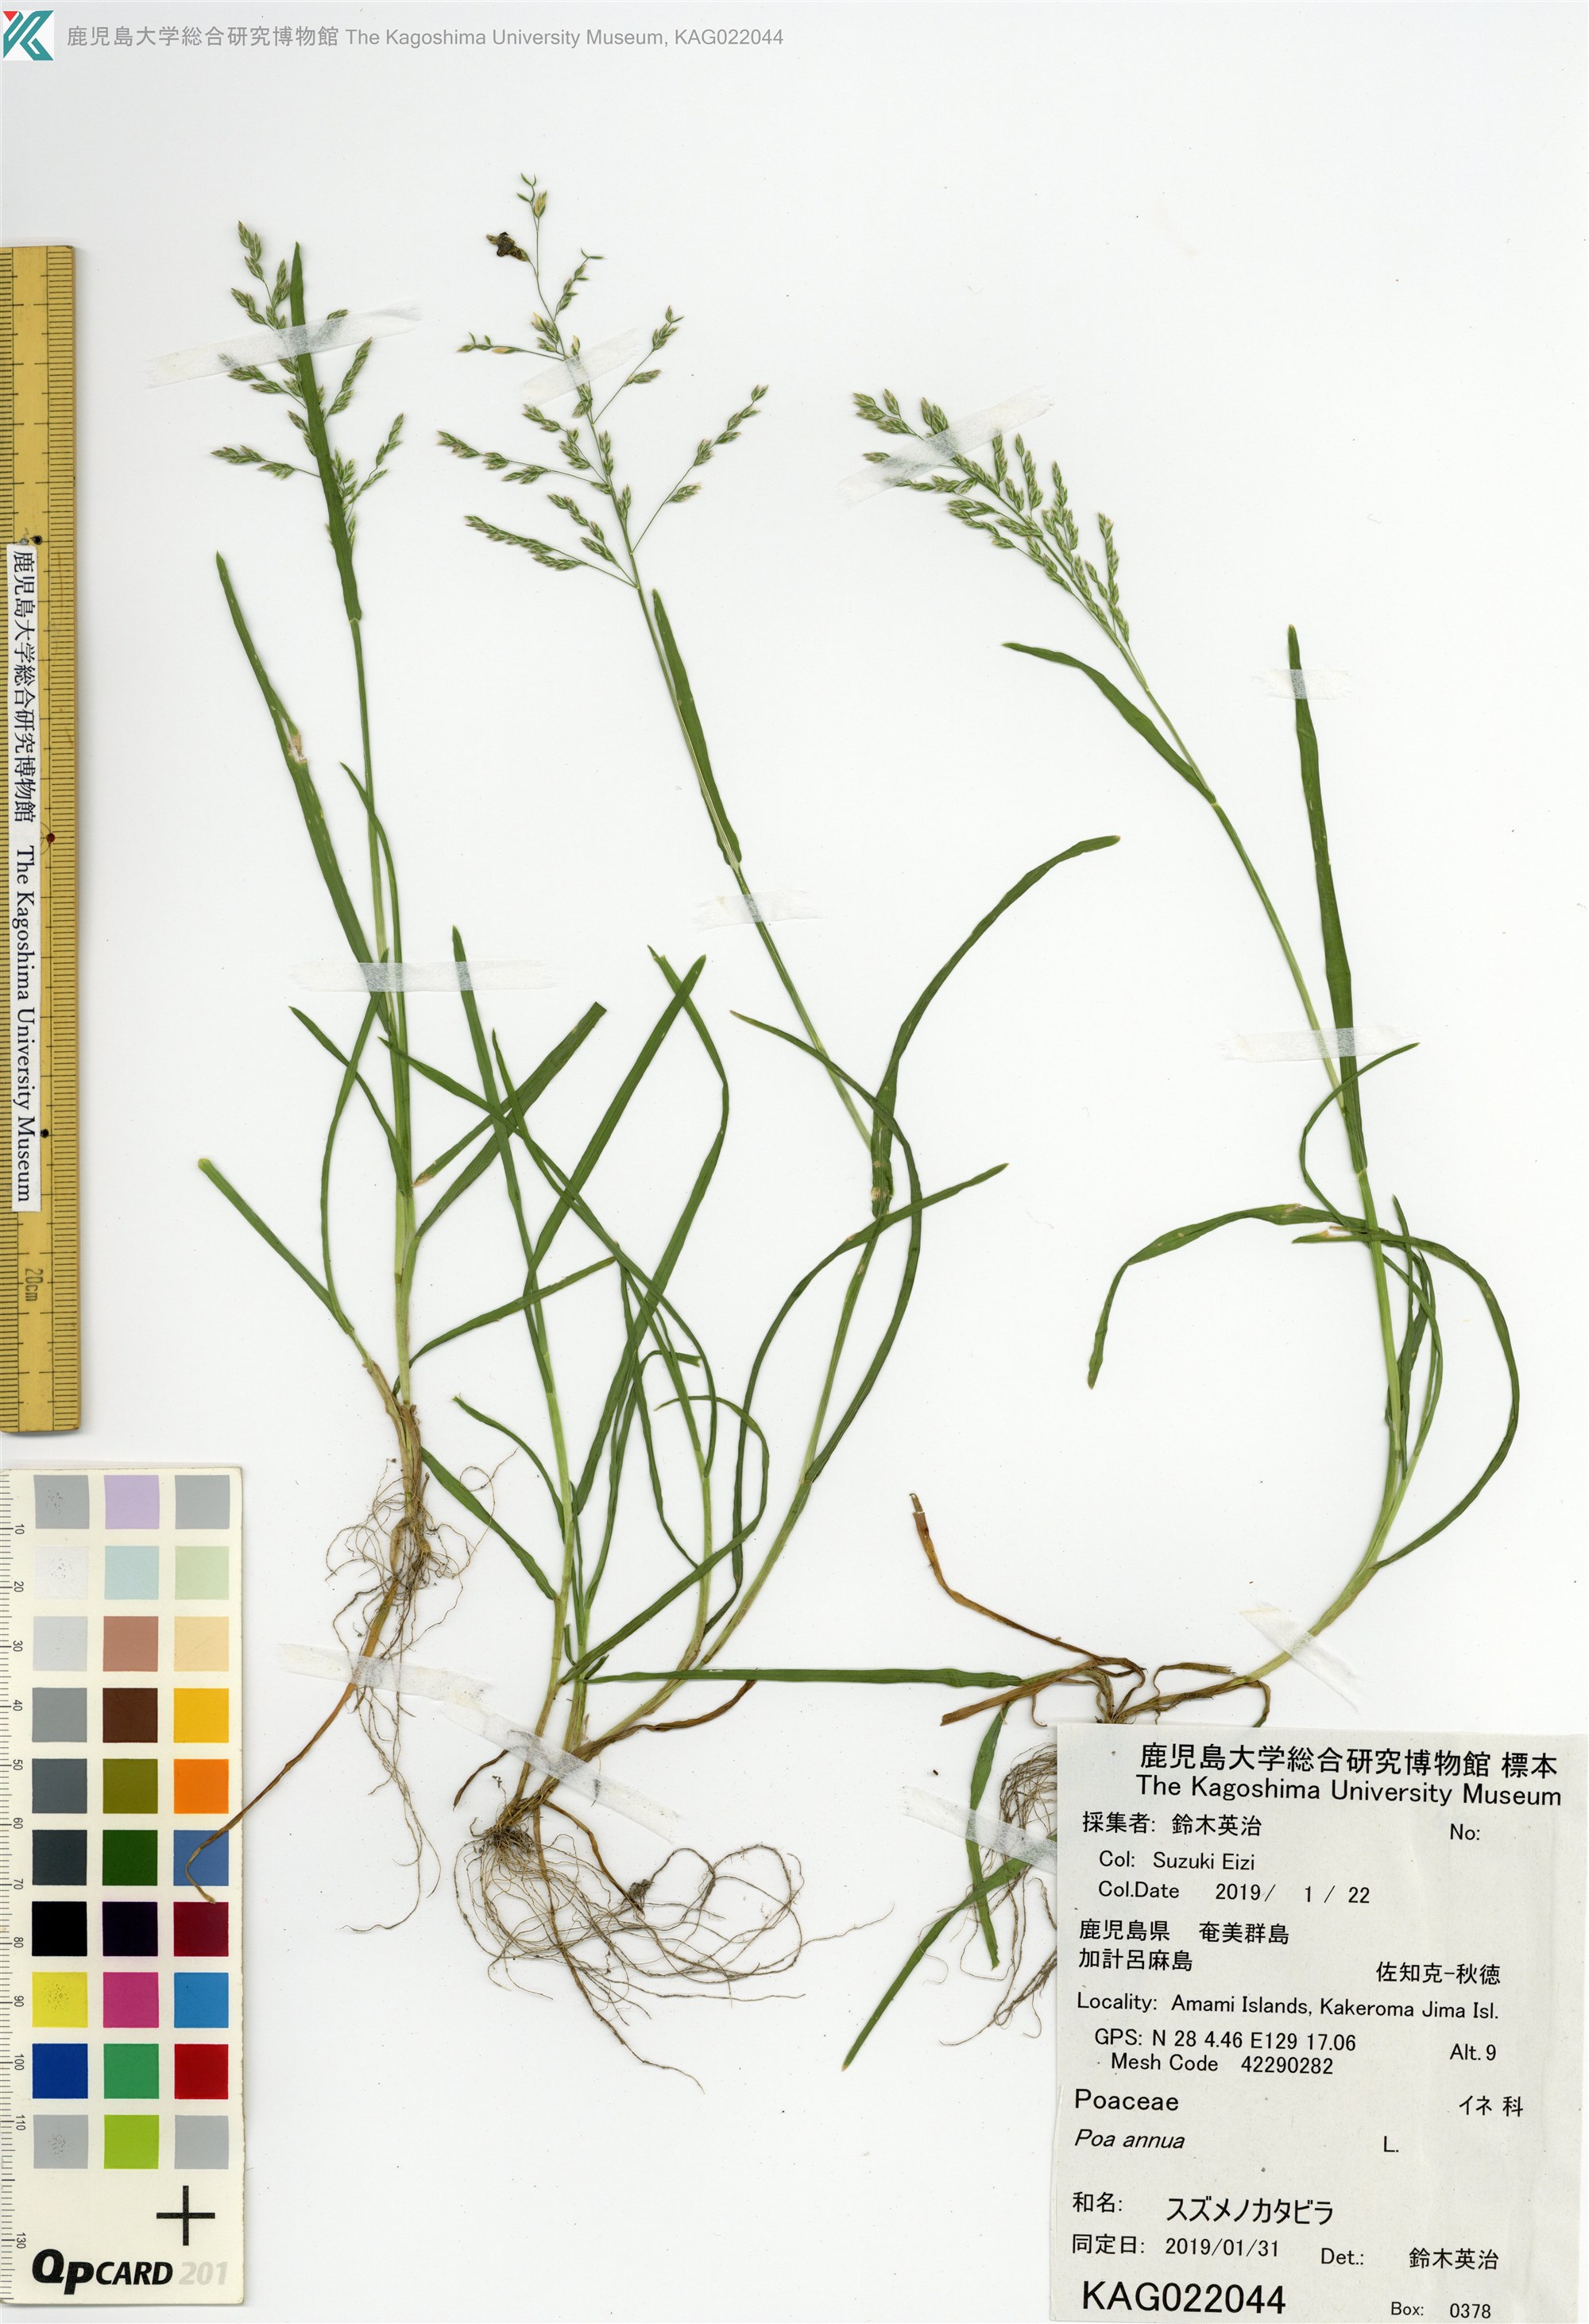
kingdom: Plantae
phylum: Tracheophyta
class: Liliopsida
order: Poales
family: Poaceae
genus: Poa
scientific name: Poa annua
